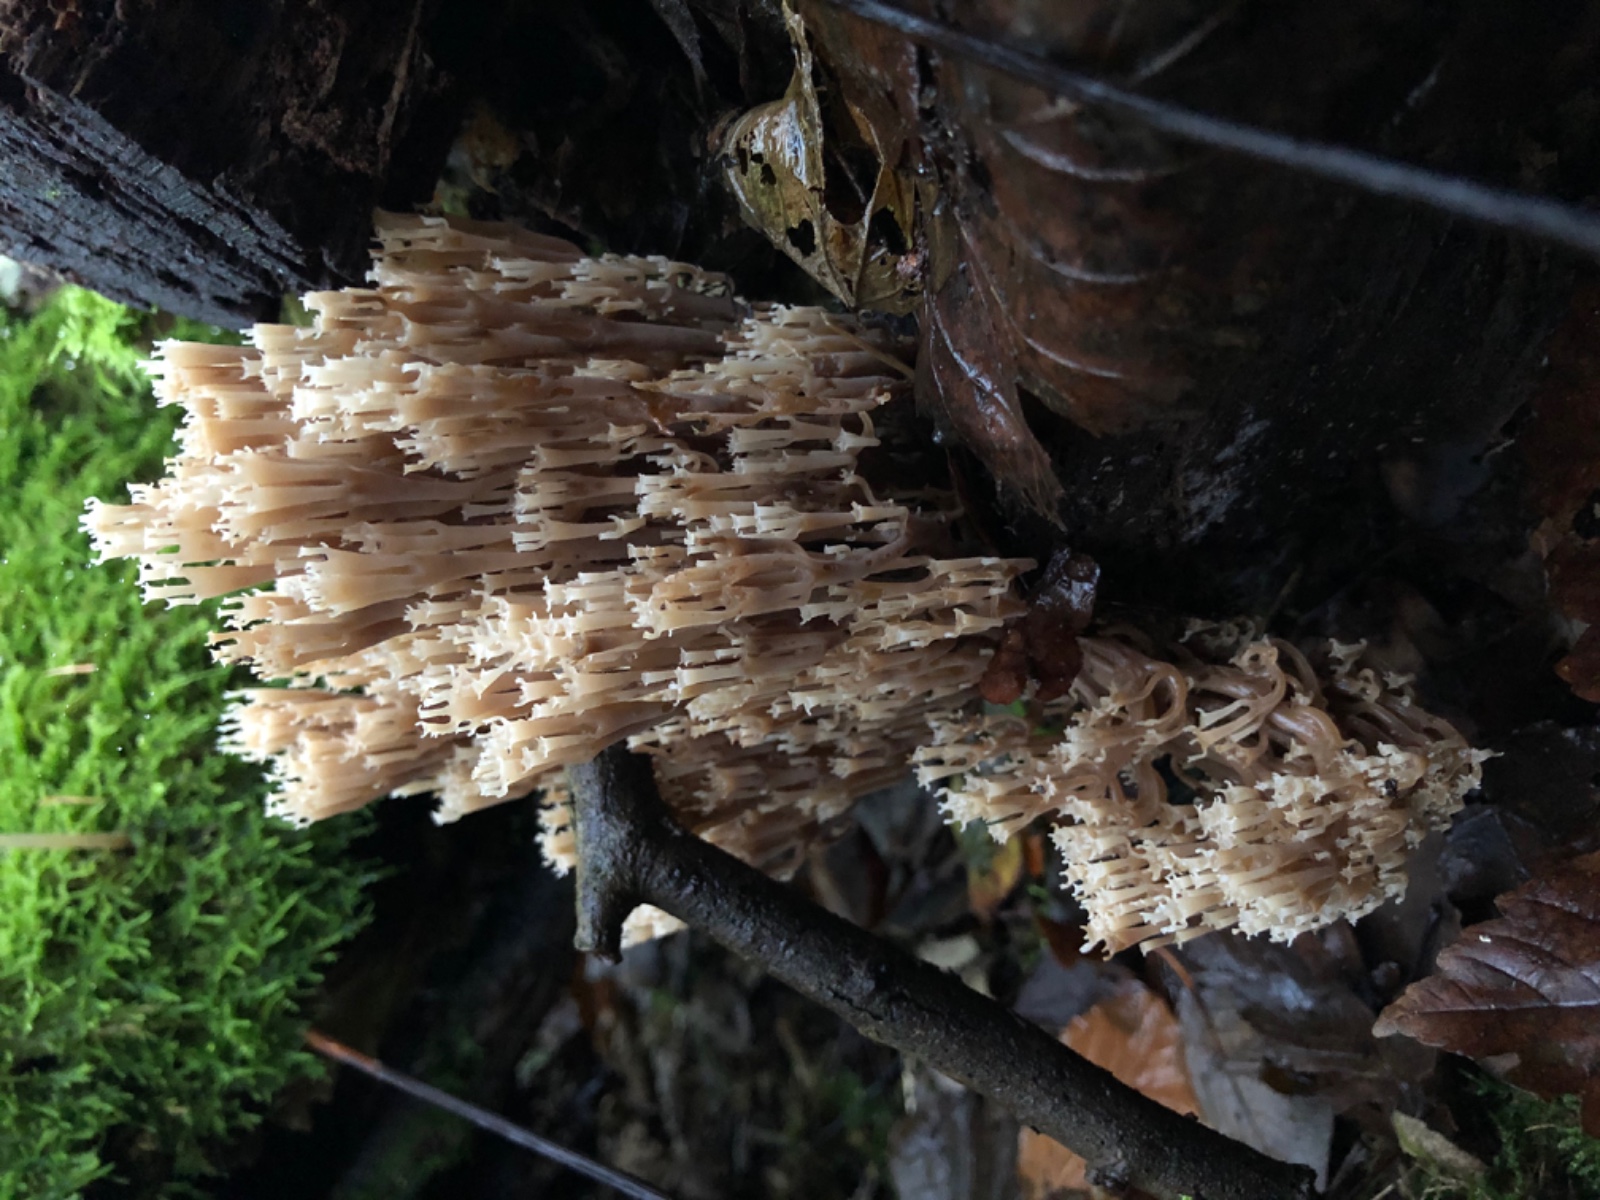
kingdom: Fungi
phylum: Basidiomycota
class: Agaricomycetes
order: Russulales
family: Auriscalpiaceae
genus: Artomyces
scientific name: Artomyces pyxidatus
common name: kandelabersvamp
